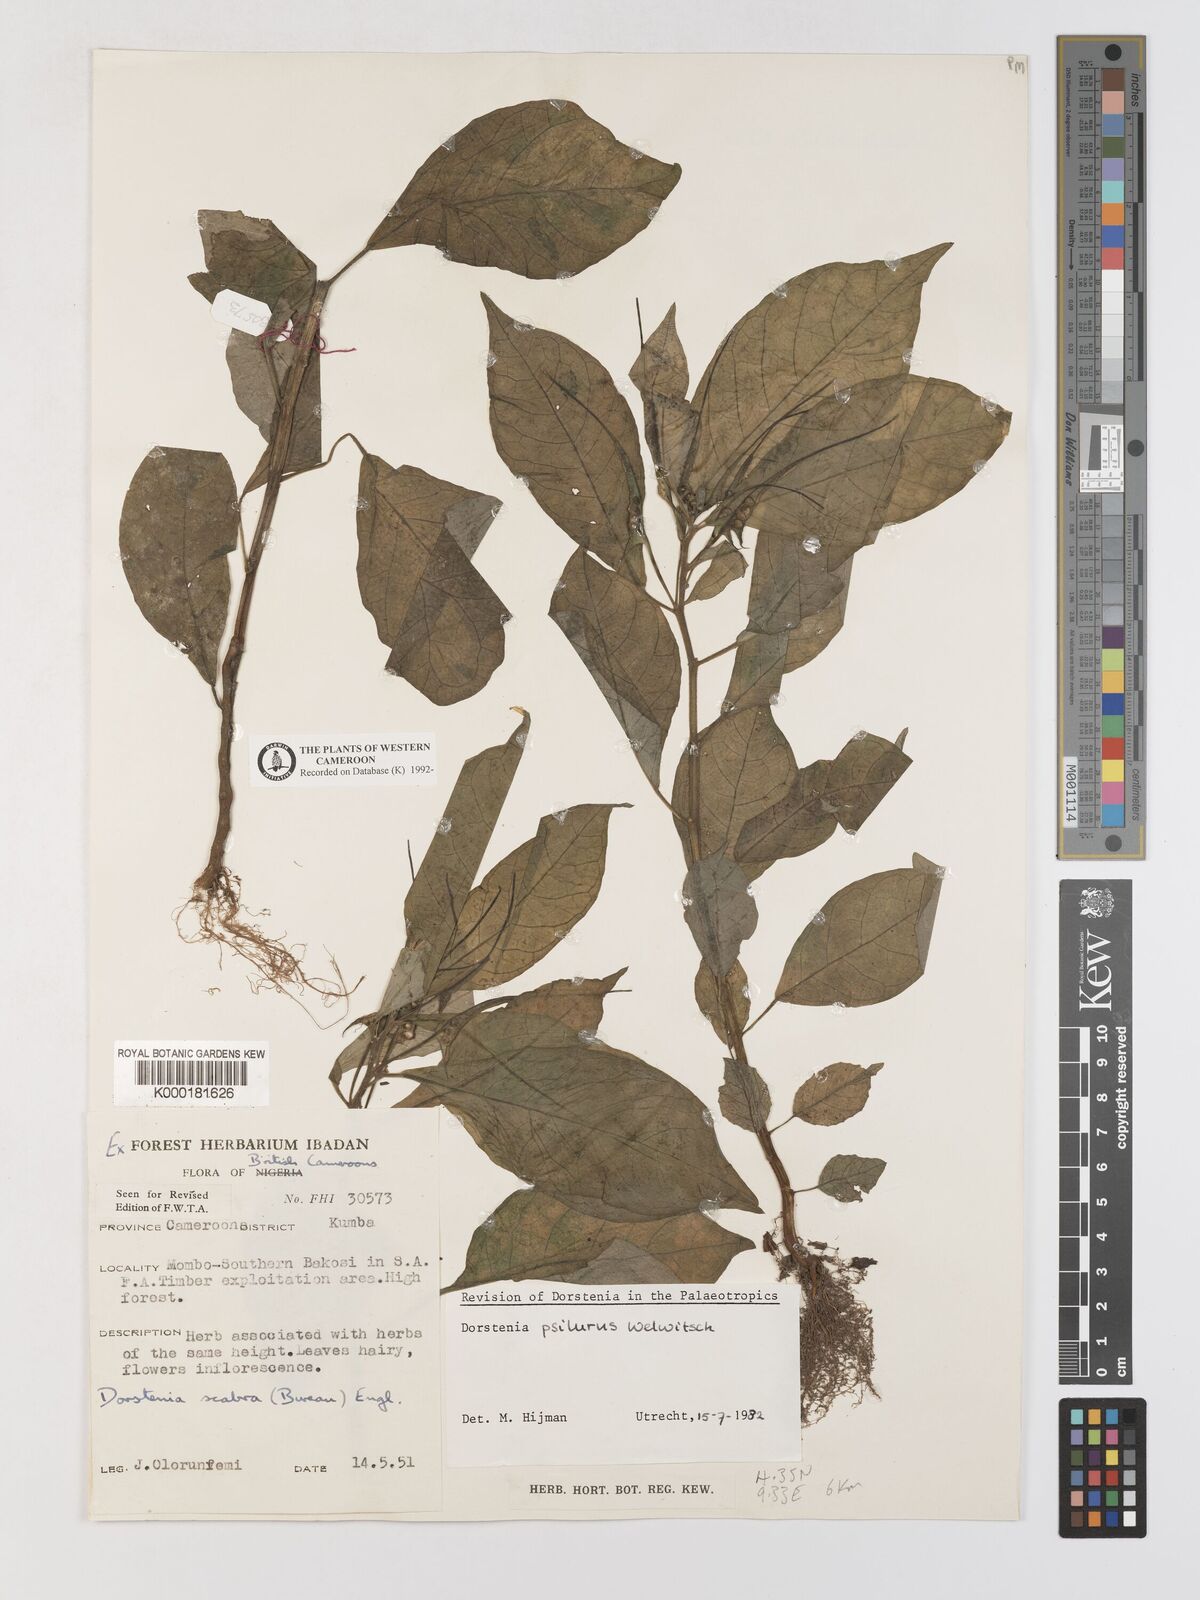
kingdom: Plantae
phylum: Tracheophyta
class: Magnoliopsida
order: Rosales
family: Moraceae
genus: Dorstenia
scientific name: Dorstenia psilurus
